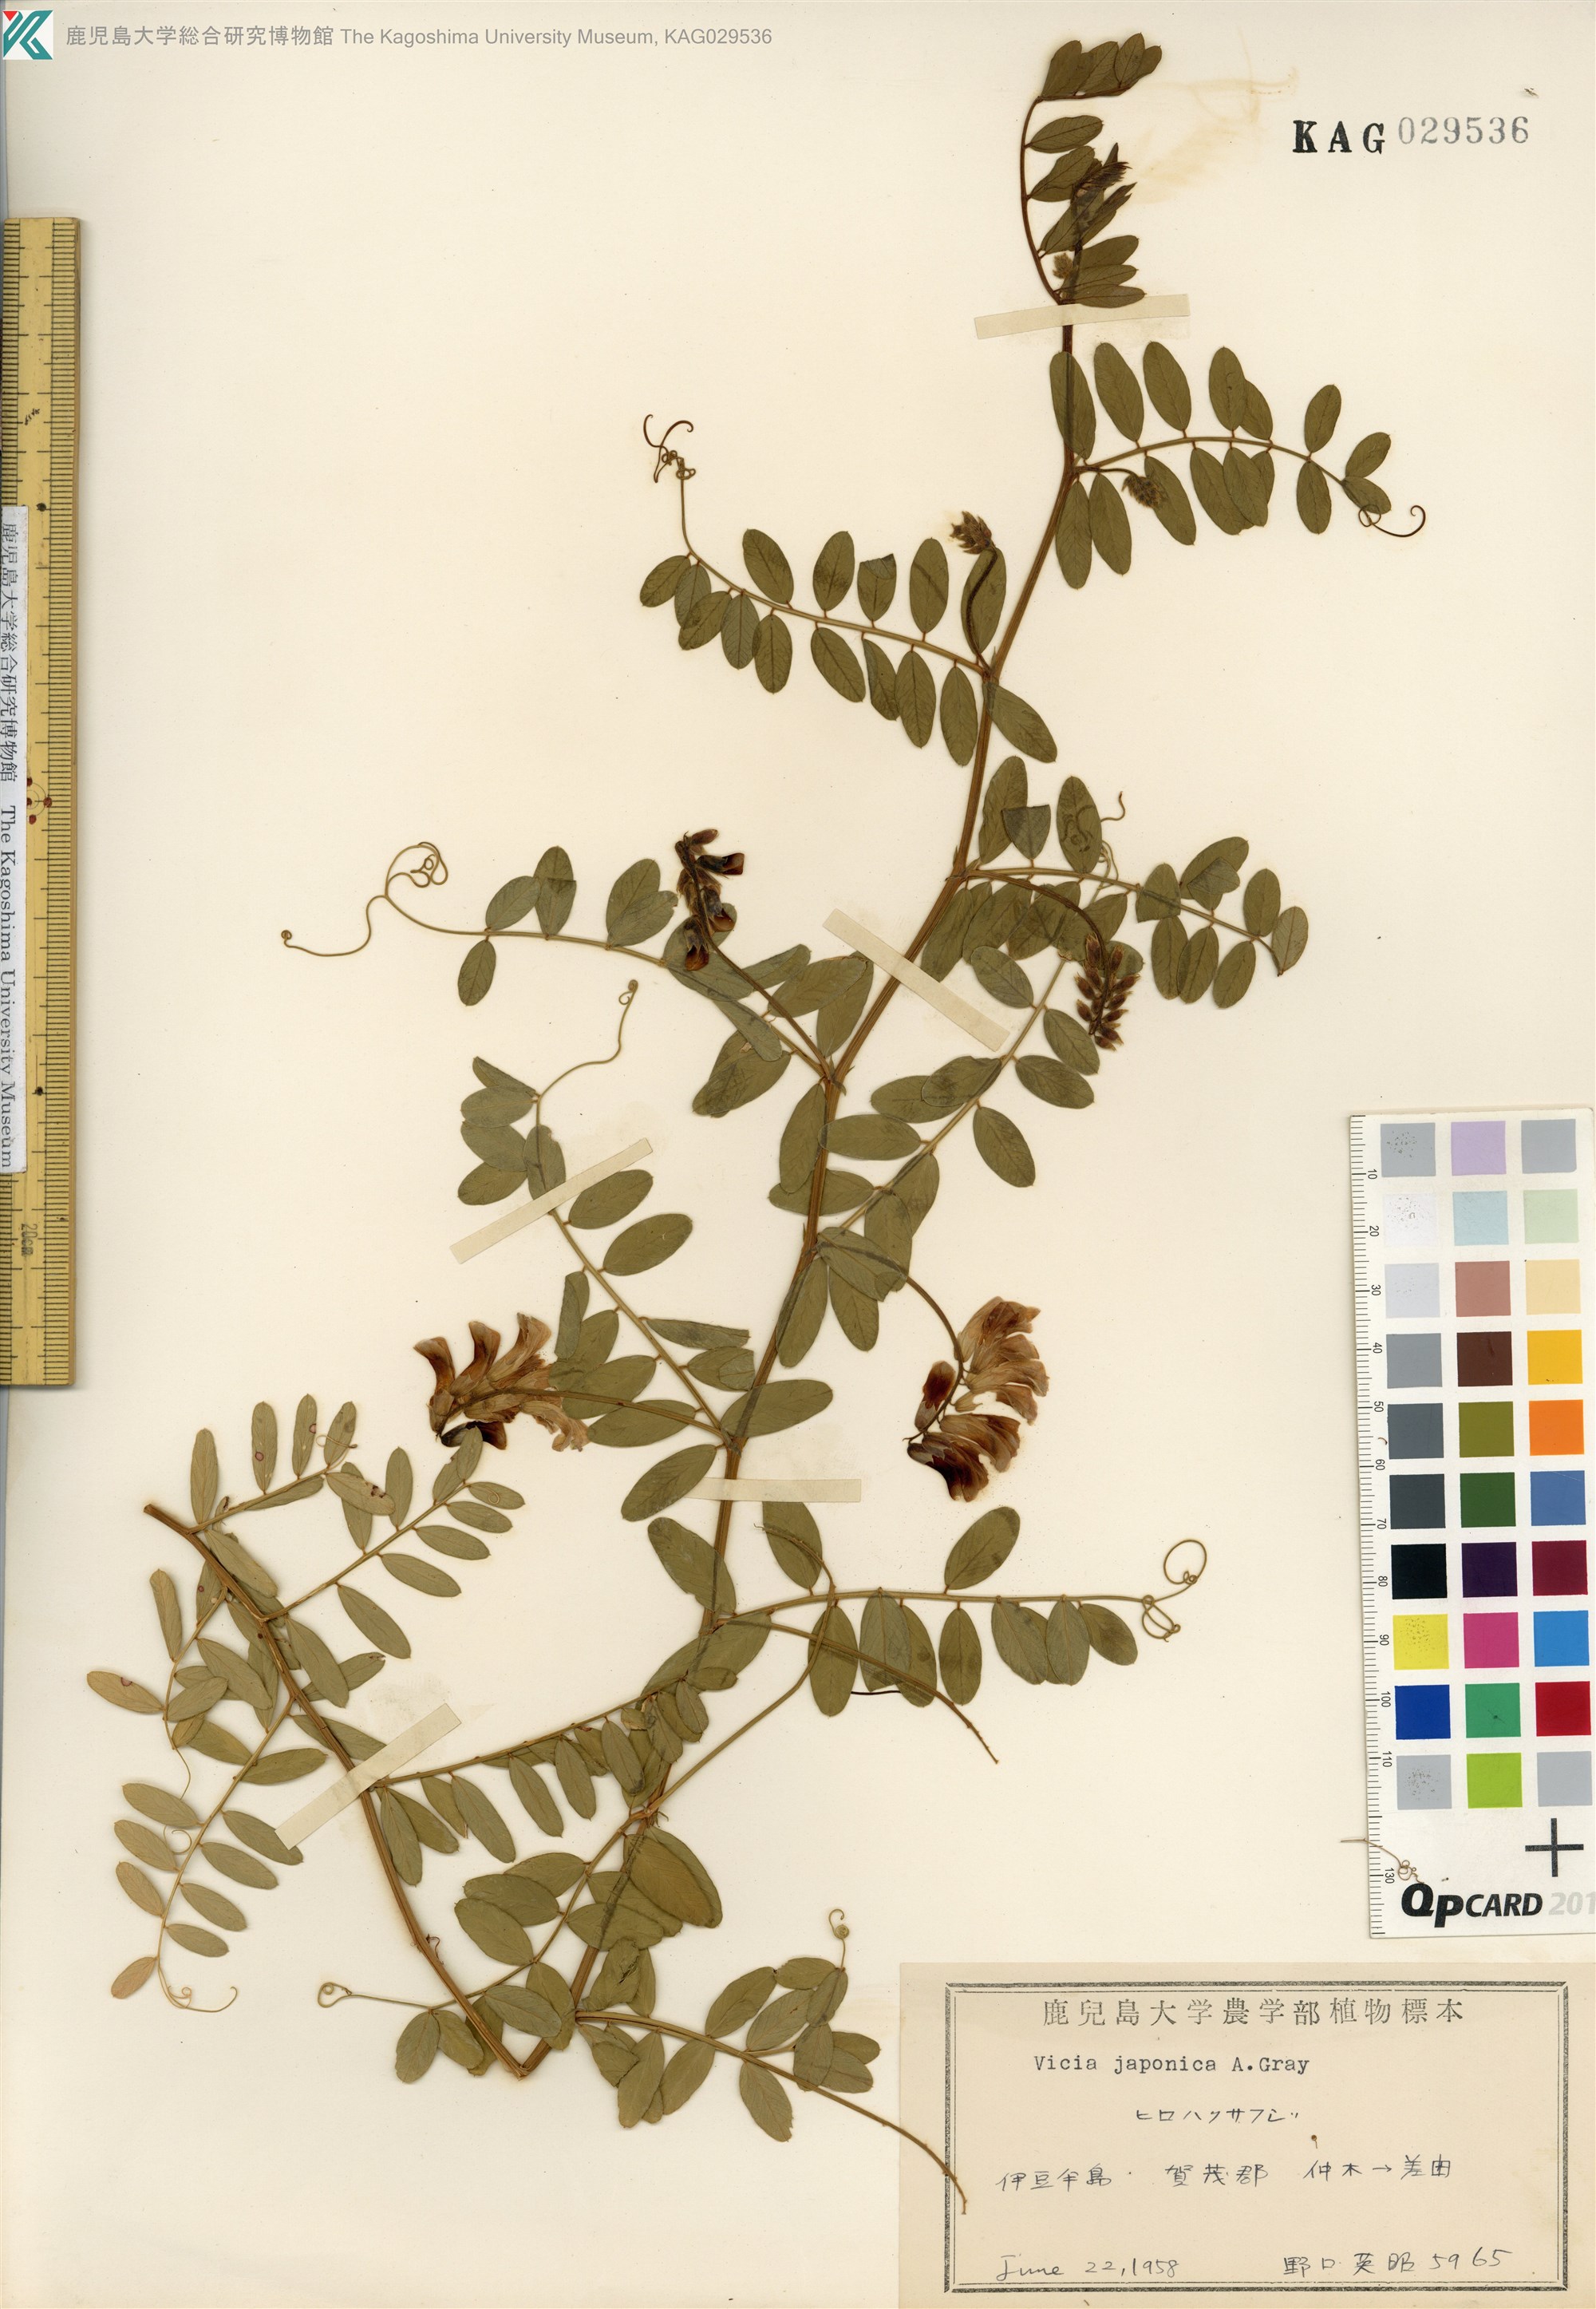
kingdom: Plantae
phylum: Tracheophyta
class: Magnoliopsida
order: Fabales
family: Fabaceae
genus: Vicia
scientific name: Vicia japonica
